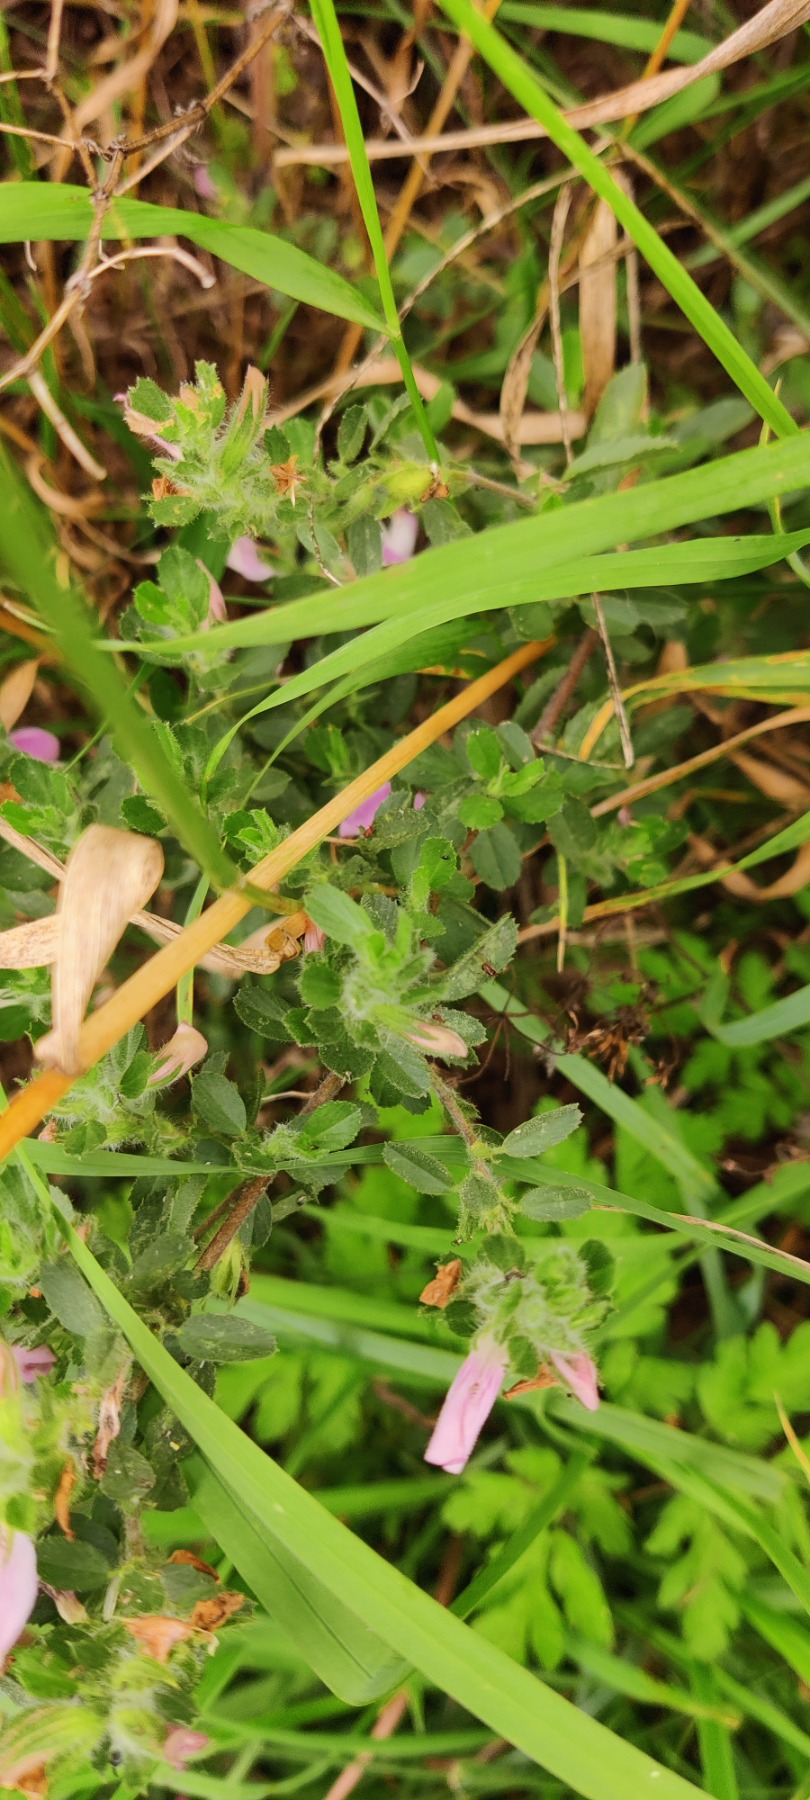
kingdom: Plantae
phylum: Tracheophyta
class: Magnoliopsida
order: Fabales
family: Fabaceae
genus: Ononis
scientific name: Ononis spinosa
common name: Mark-krageklo
